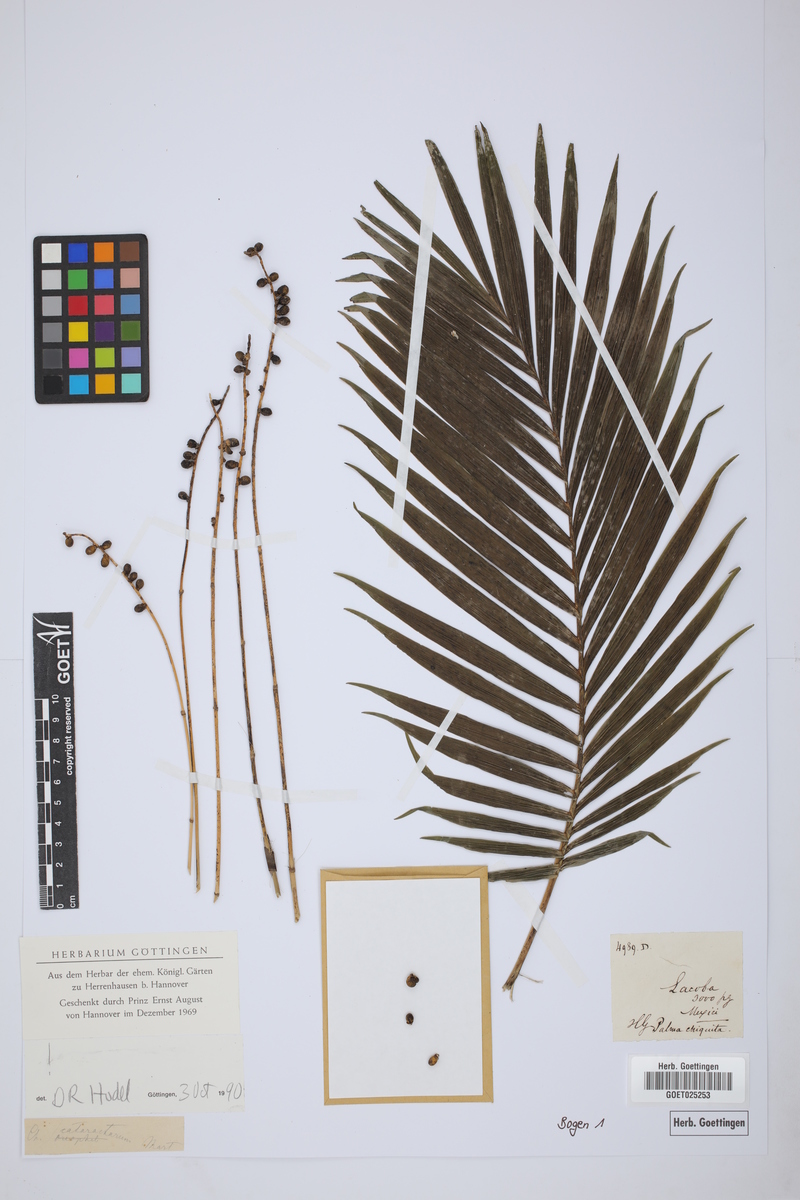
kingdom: Plantae
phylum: Tracheophyta
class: Liliopsida
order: Arecales
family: Arecaceae
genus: Chamaedorea
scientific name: Chamaedorea cataractarum
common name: Cascade palm
